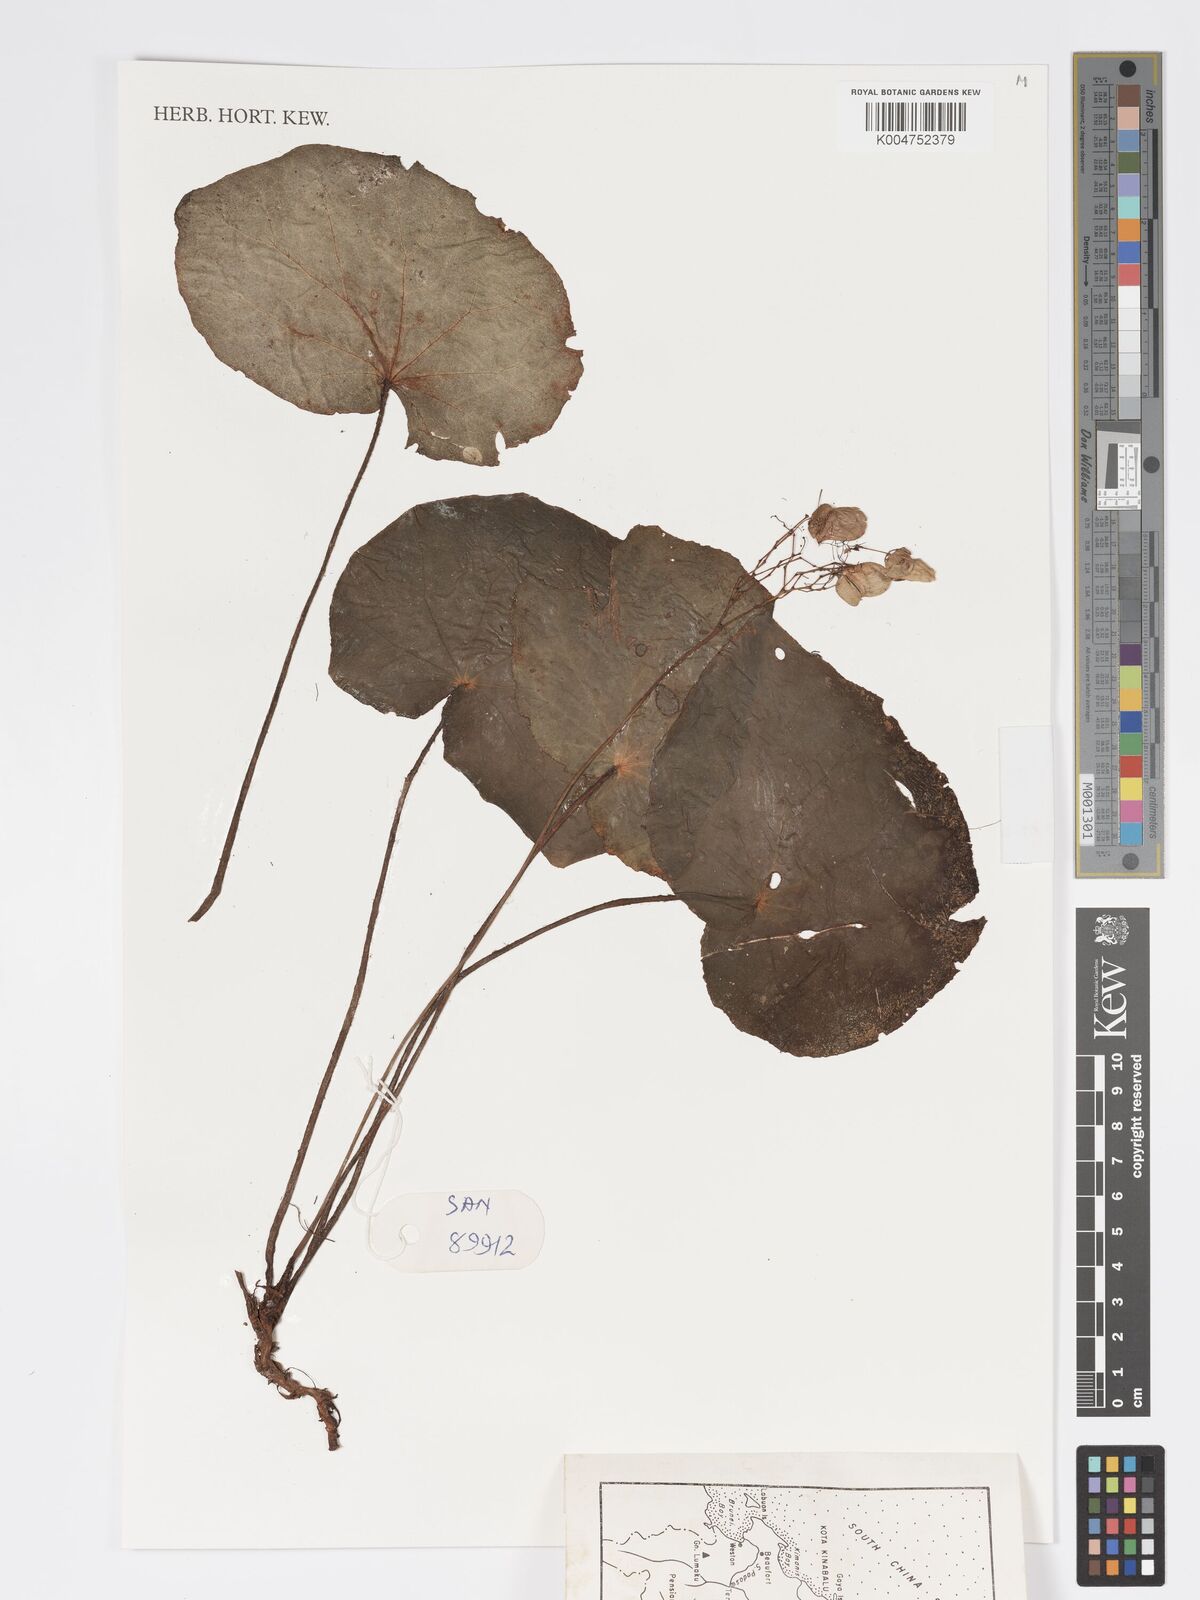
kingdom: Plantae
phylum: Tracheophyta
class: Magnoliopsida
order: Cucurbitales
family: Begoniaceae
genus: Begonia
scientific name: Begonia gueritziana
